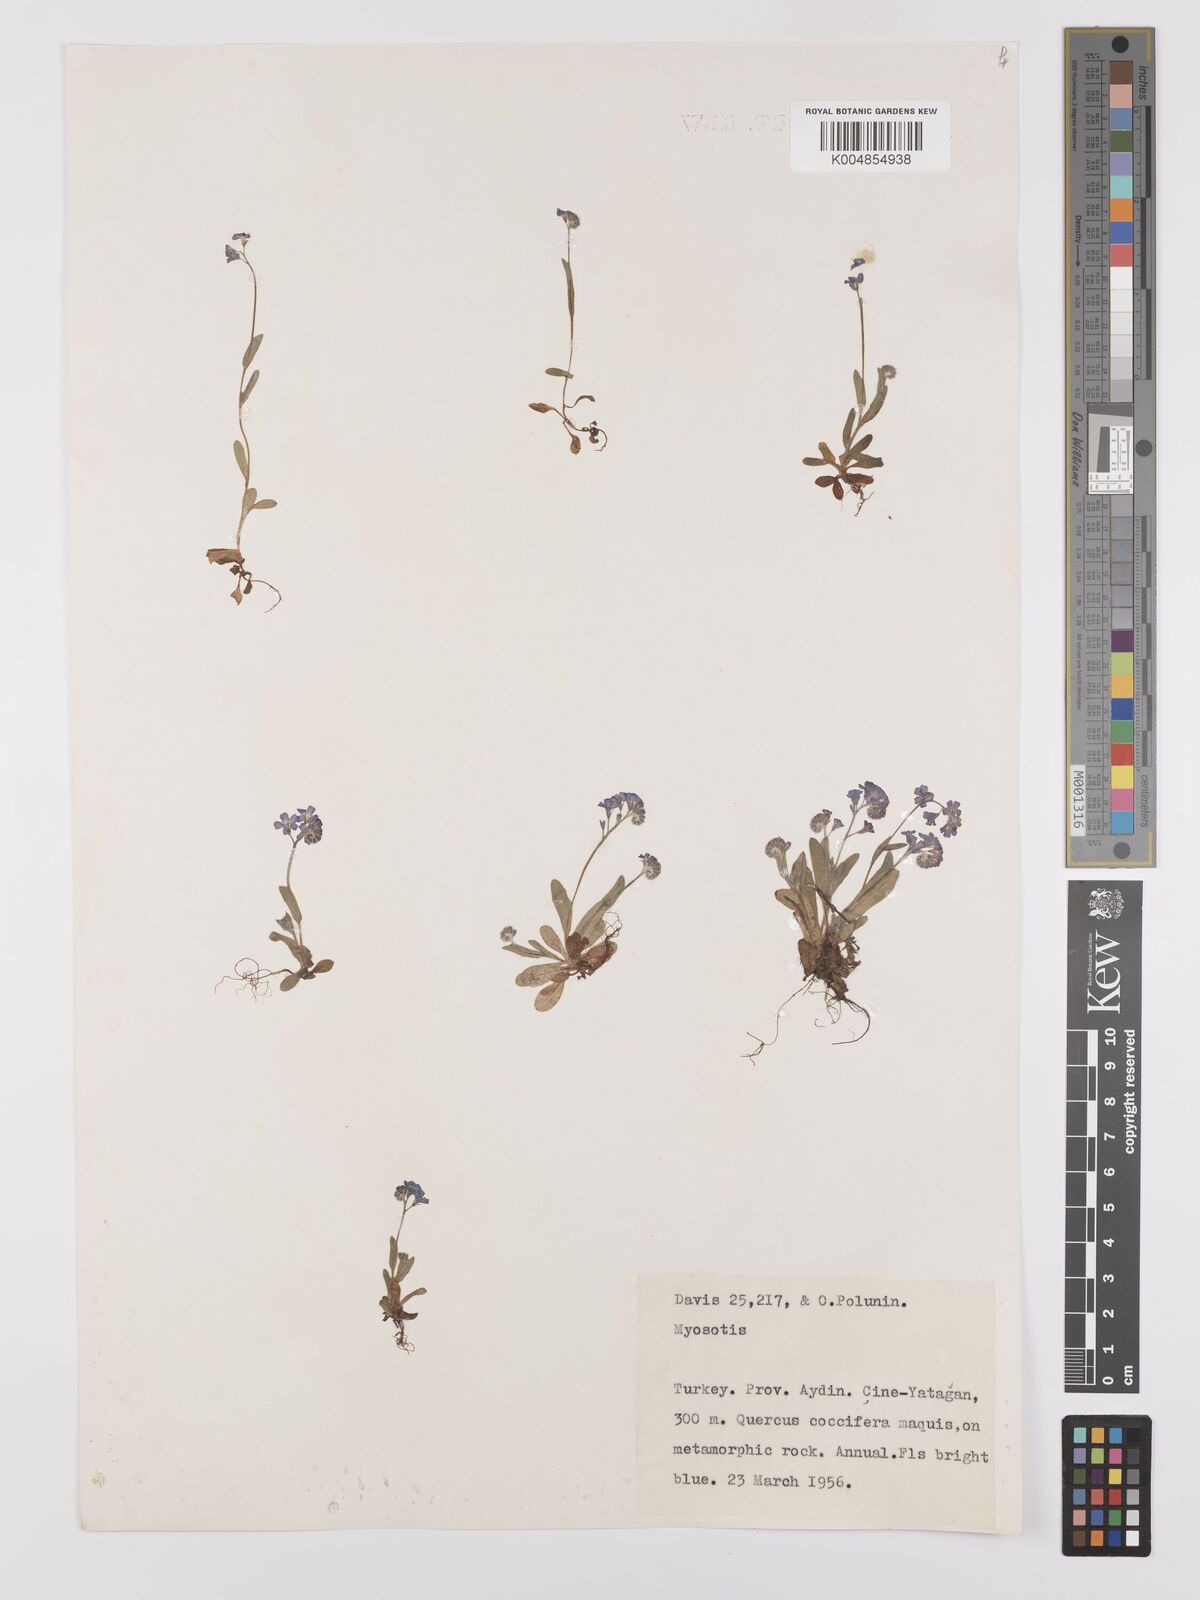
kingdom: Plantae
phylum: Tracheophyta
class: Magnoliopsida
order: Boraginales
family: Boraginaceae
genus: Myosotis
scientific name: Myosotis
